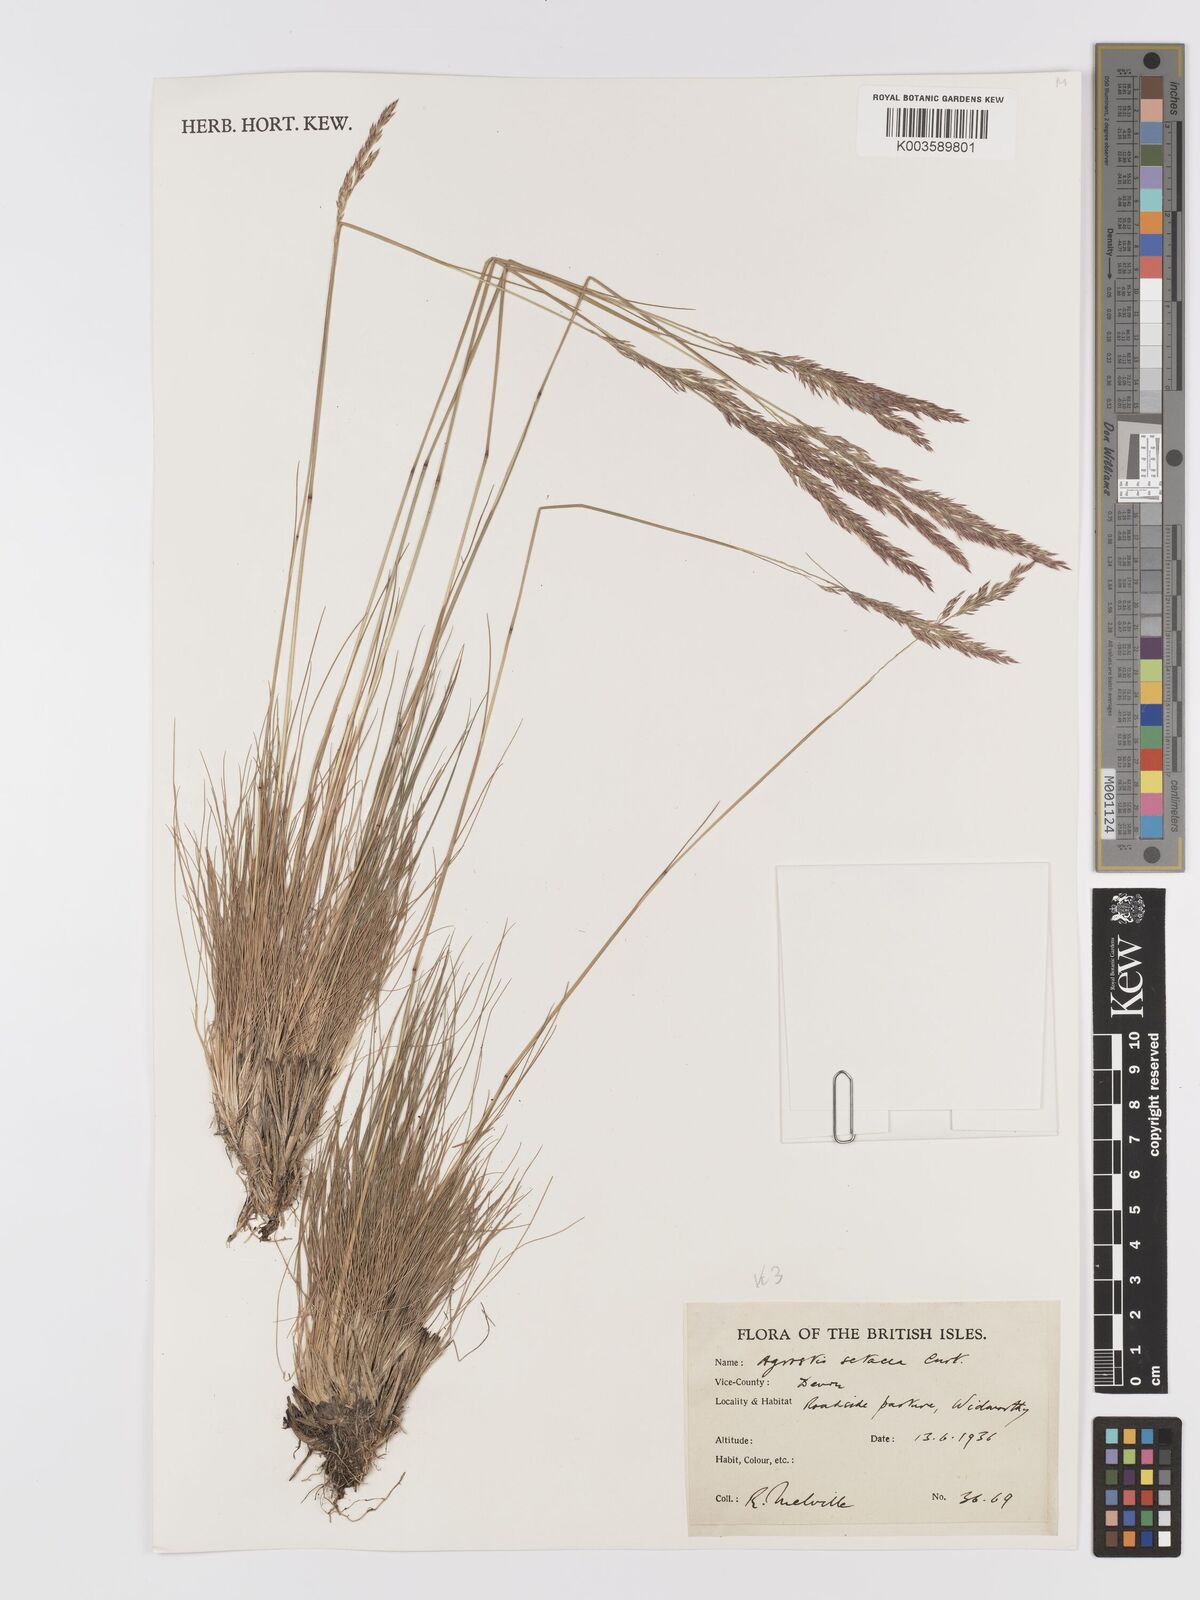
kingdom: Plantae
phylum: Tracheophyta
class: Liliopsida
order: Poales
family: Poaceae
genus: Alpagrostis
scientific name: Alpagrostis setacea
